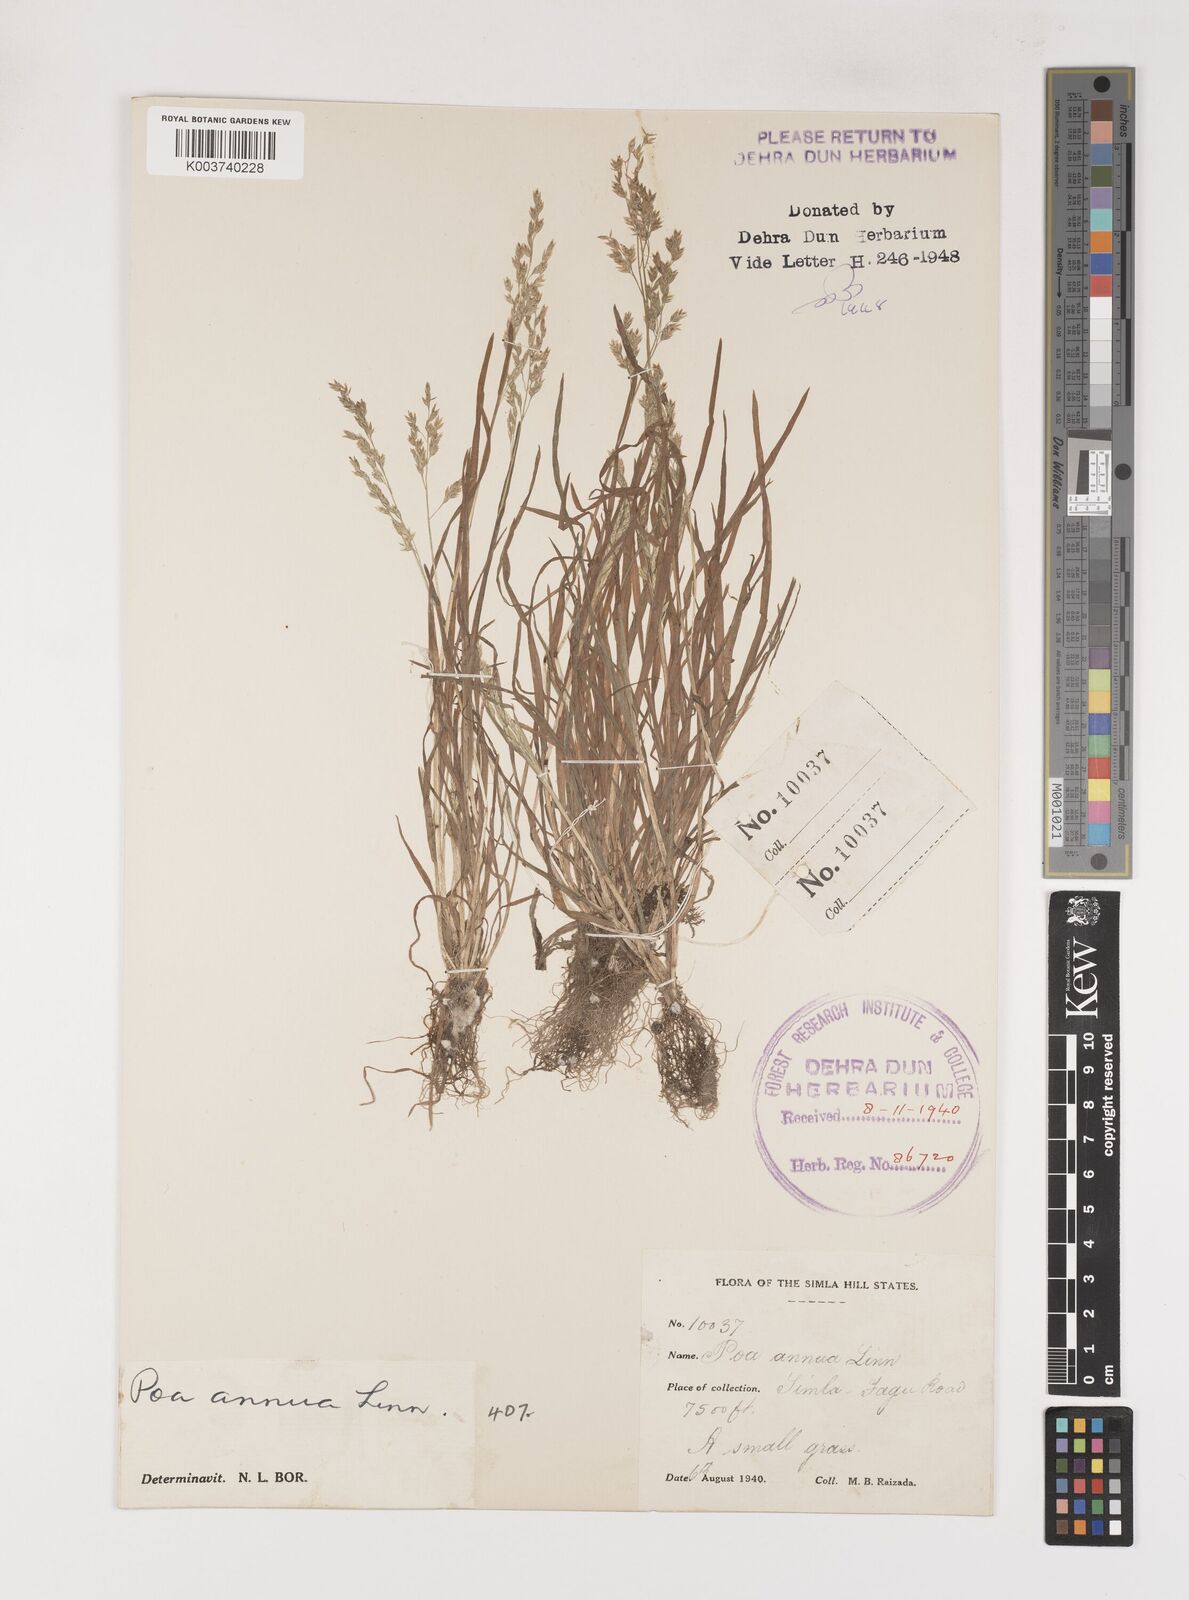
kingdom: Plantae
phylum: Tracheophyta
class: Liliopsida
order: Poales
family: Poaceae
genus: Poa
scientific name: Poa annua
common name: Annual bluegrass
